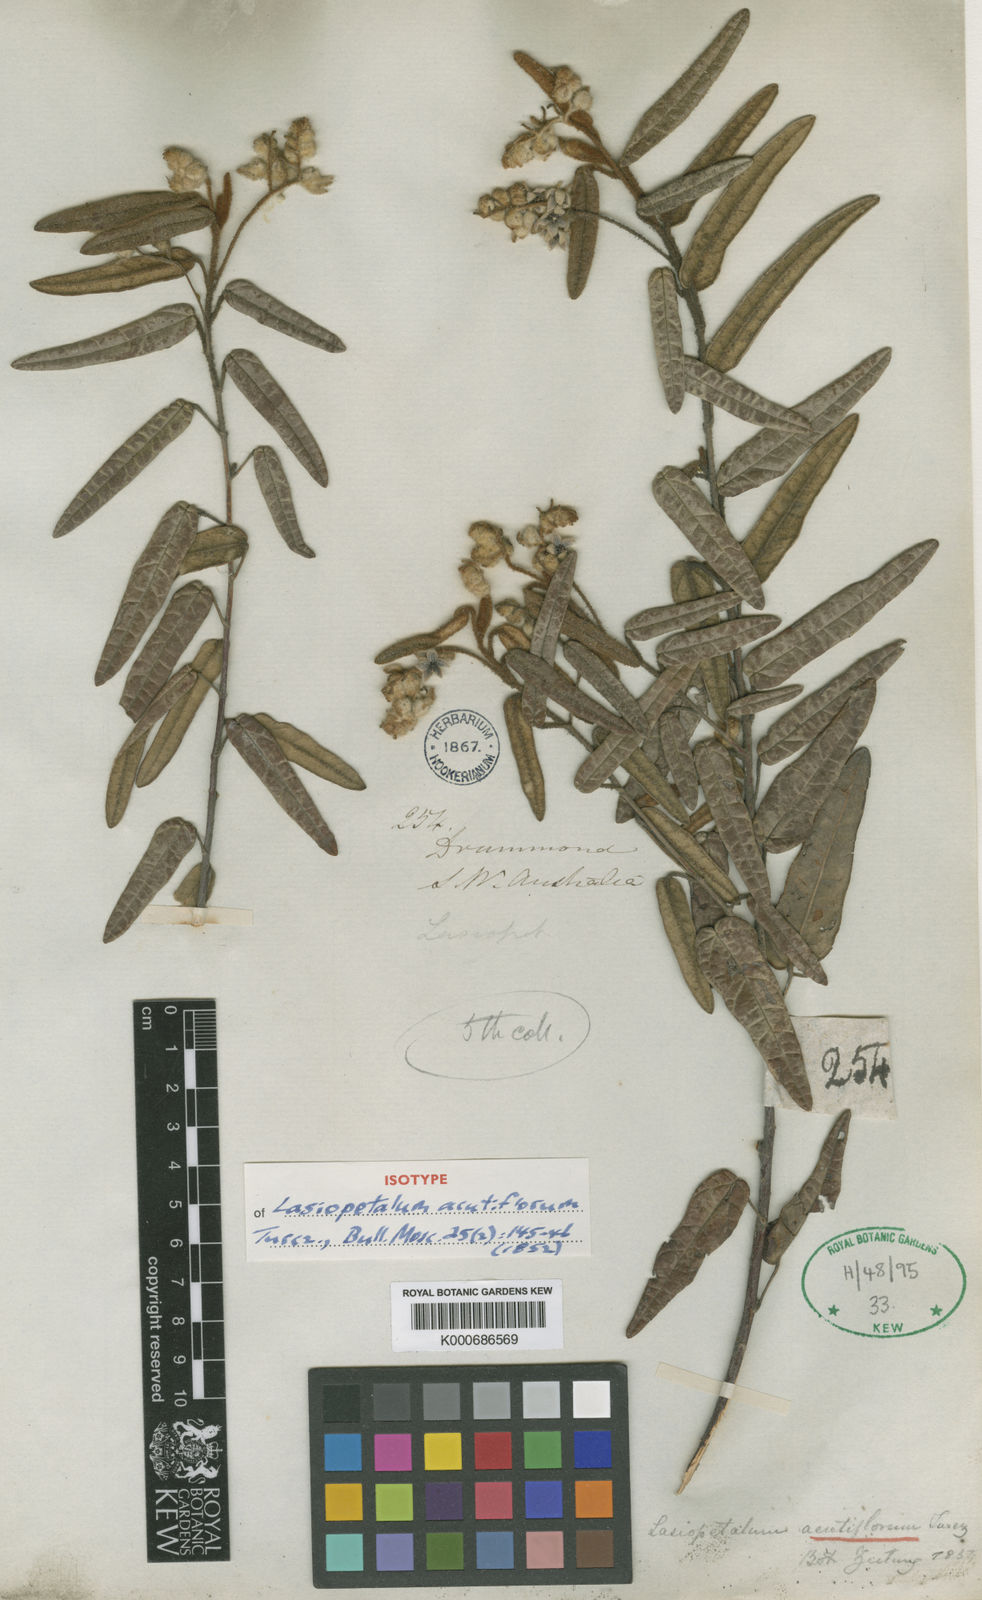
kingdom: Plantae
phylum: Tracheophyta
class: Magnoliopsida
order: Malvales
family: Malvaceae
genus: Lasiopetalum
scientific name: Lasiopetalum oldfieldii
